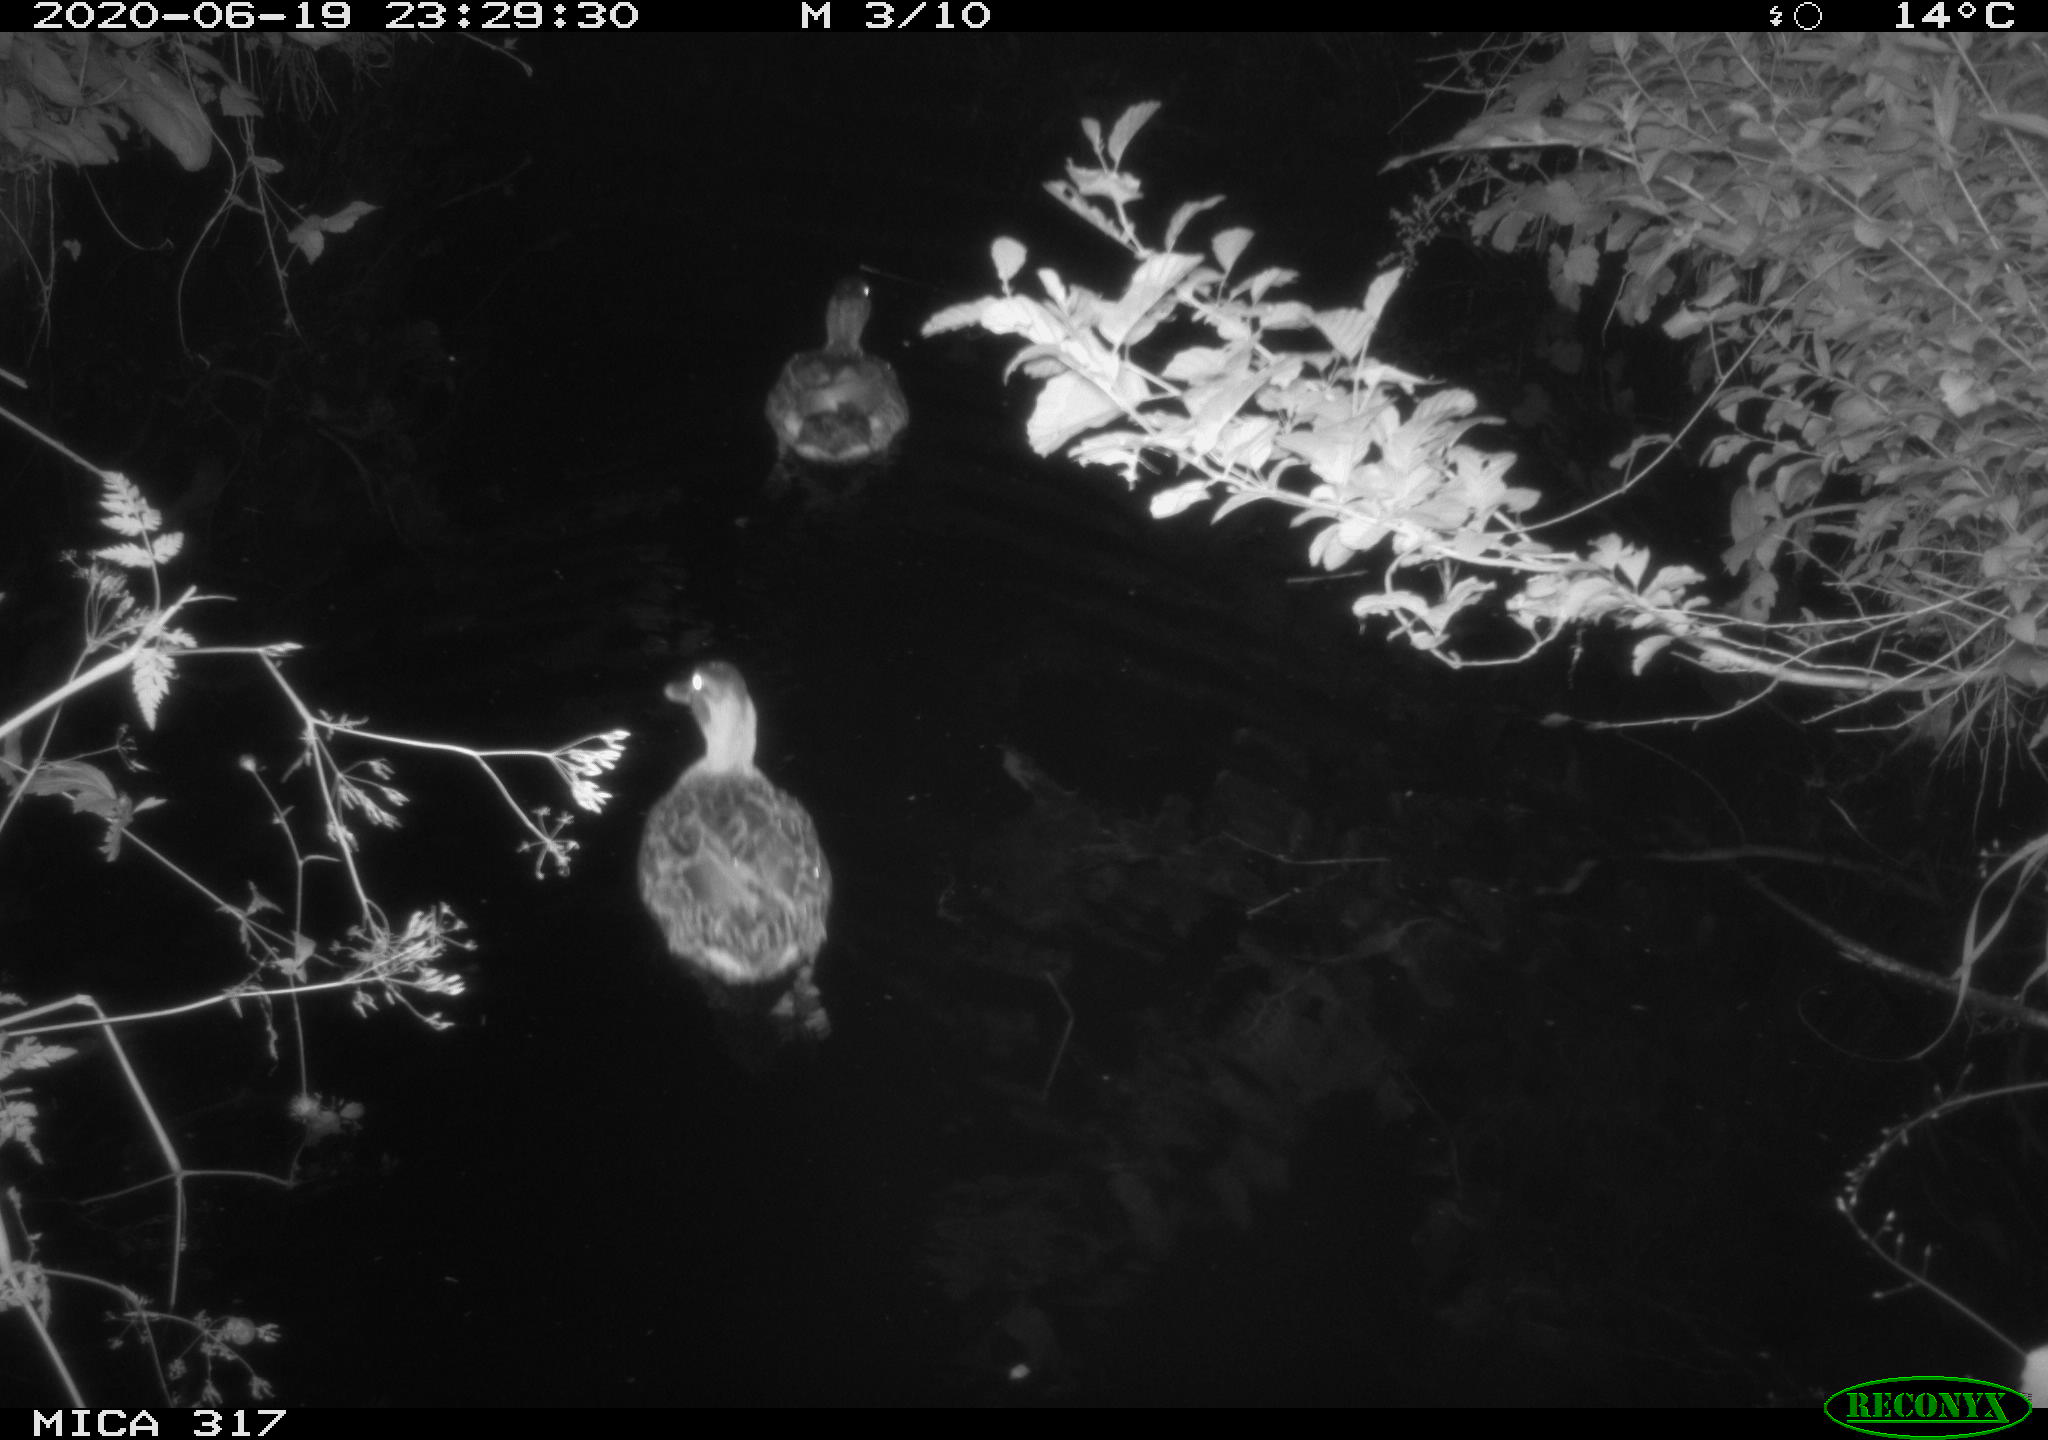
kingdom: Animalia
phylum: Chordata
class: Aves
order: Anseriformes
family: Anatidae
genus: Anas
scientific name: Anas platyrhynchos
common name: Mallard
